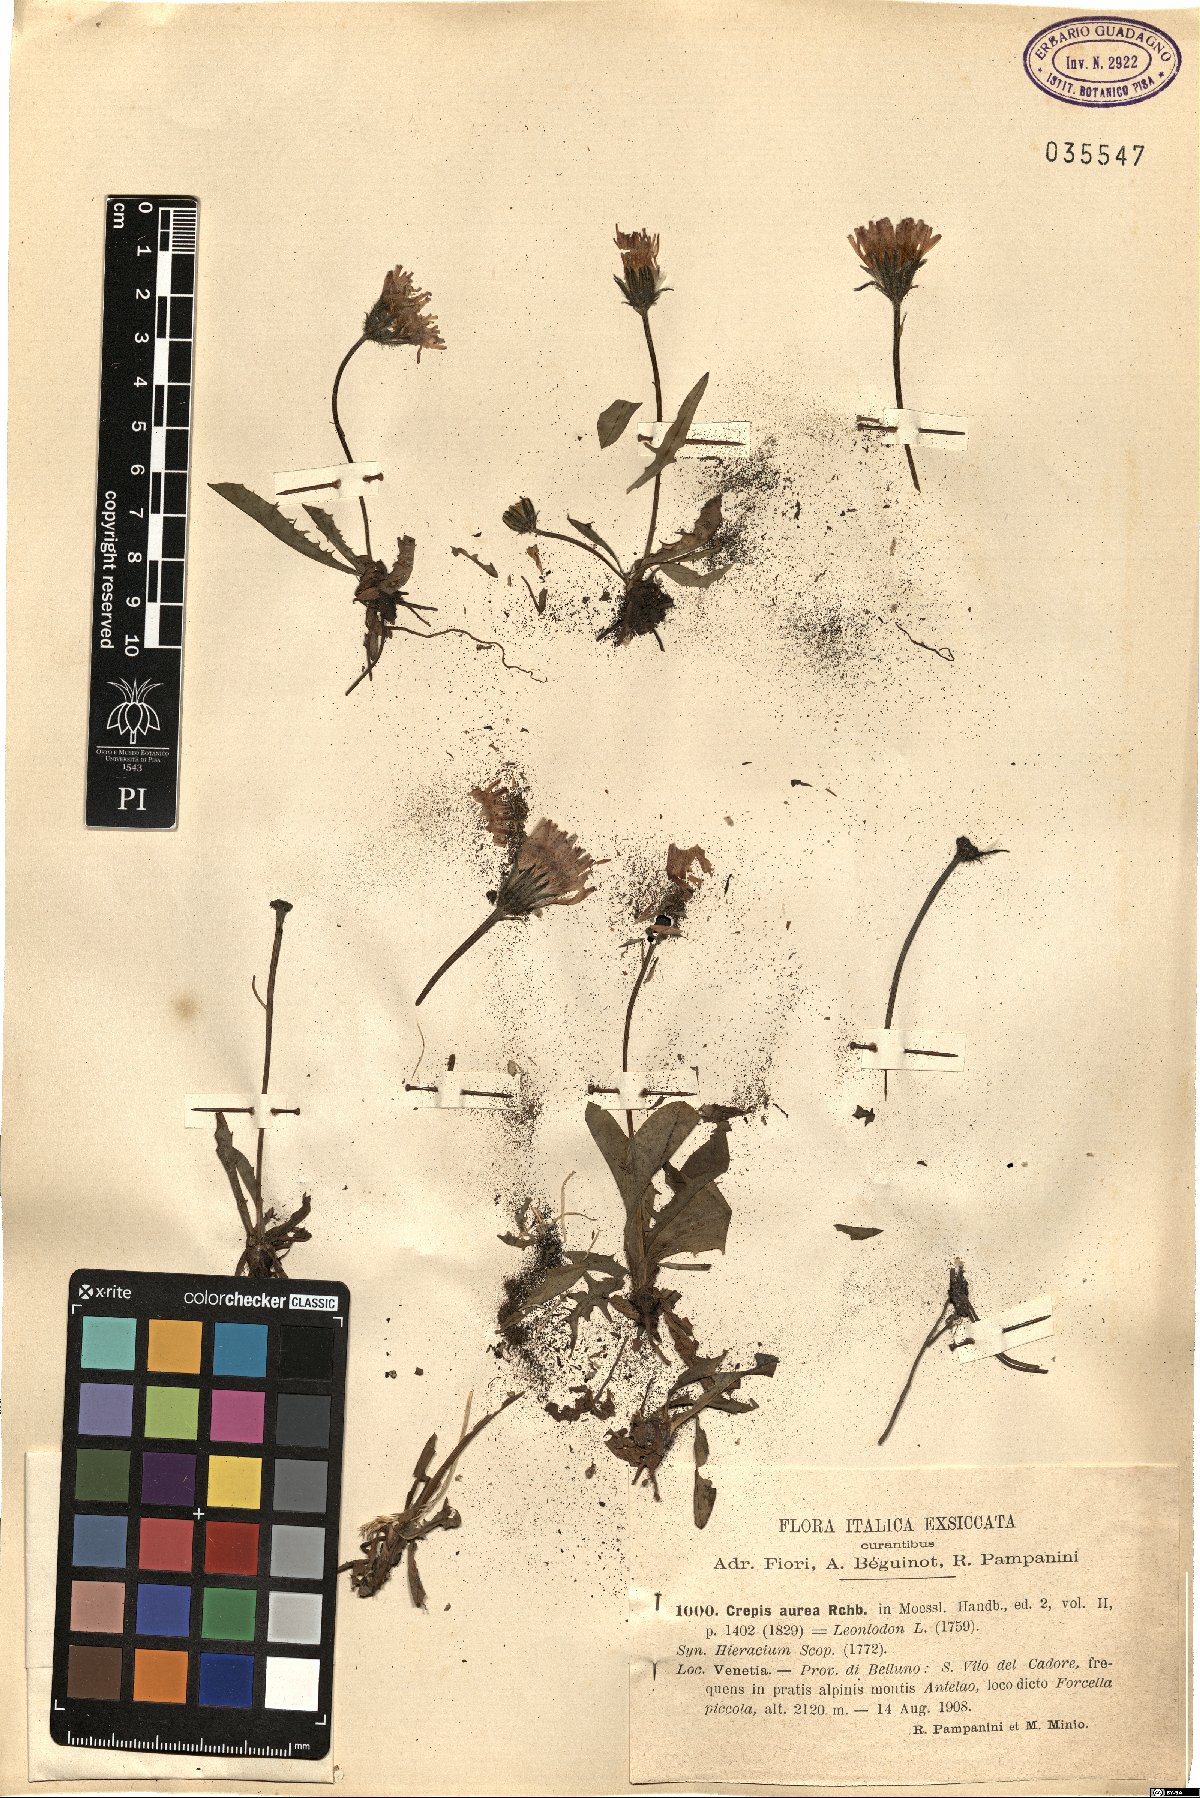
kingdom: Plantae
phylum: Tracheophyta
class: Magnoliopsida
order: Asterales
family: Asteraceae
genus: Crepis
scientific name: Crepis aurea
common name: Golden hawk's-beard
